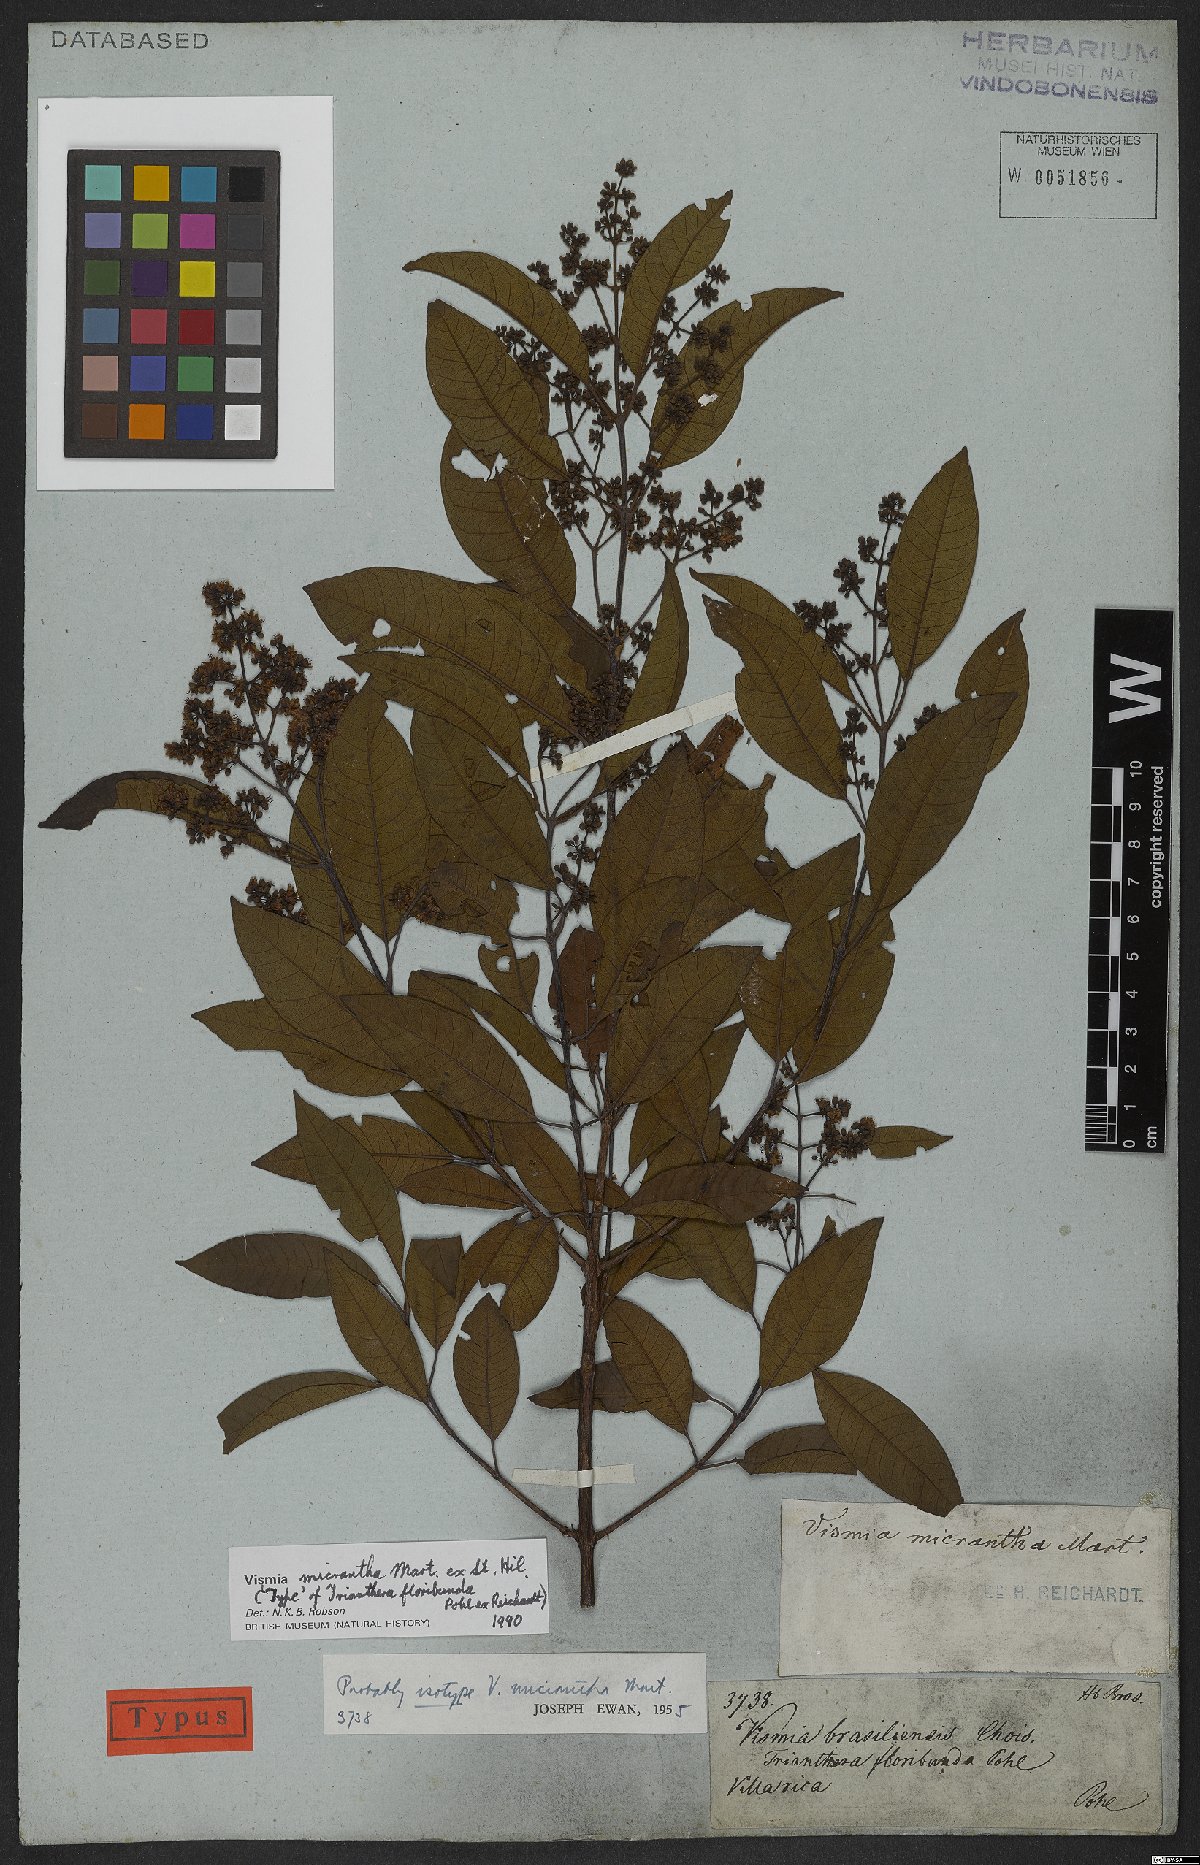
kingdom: Plantae
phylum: Tracheophyta
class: Magnoliopsida
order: Malpighiales
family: Hypericaceae
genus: Vismia
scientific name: Vismia micrantha
